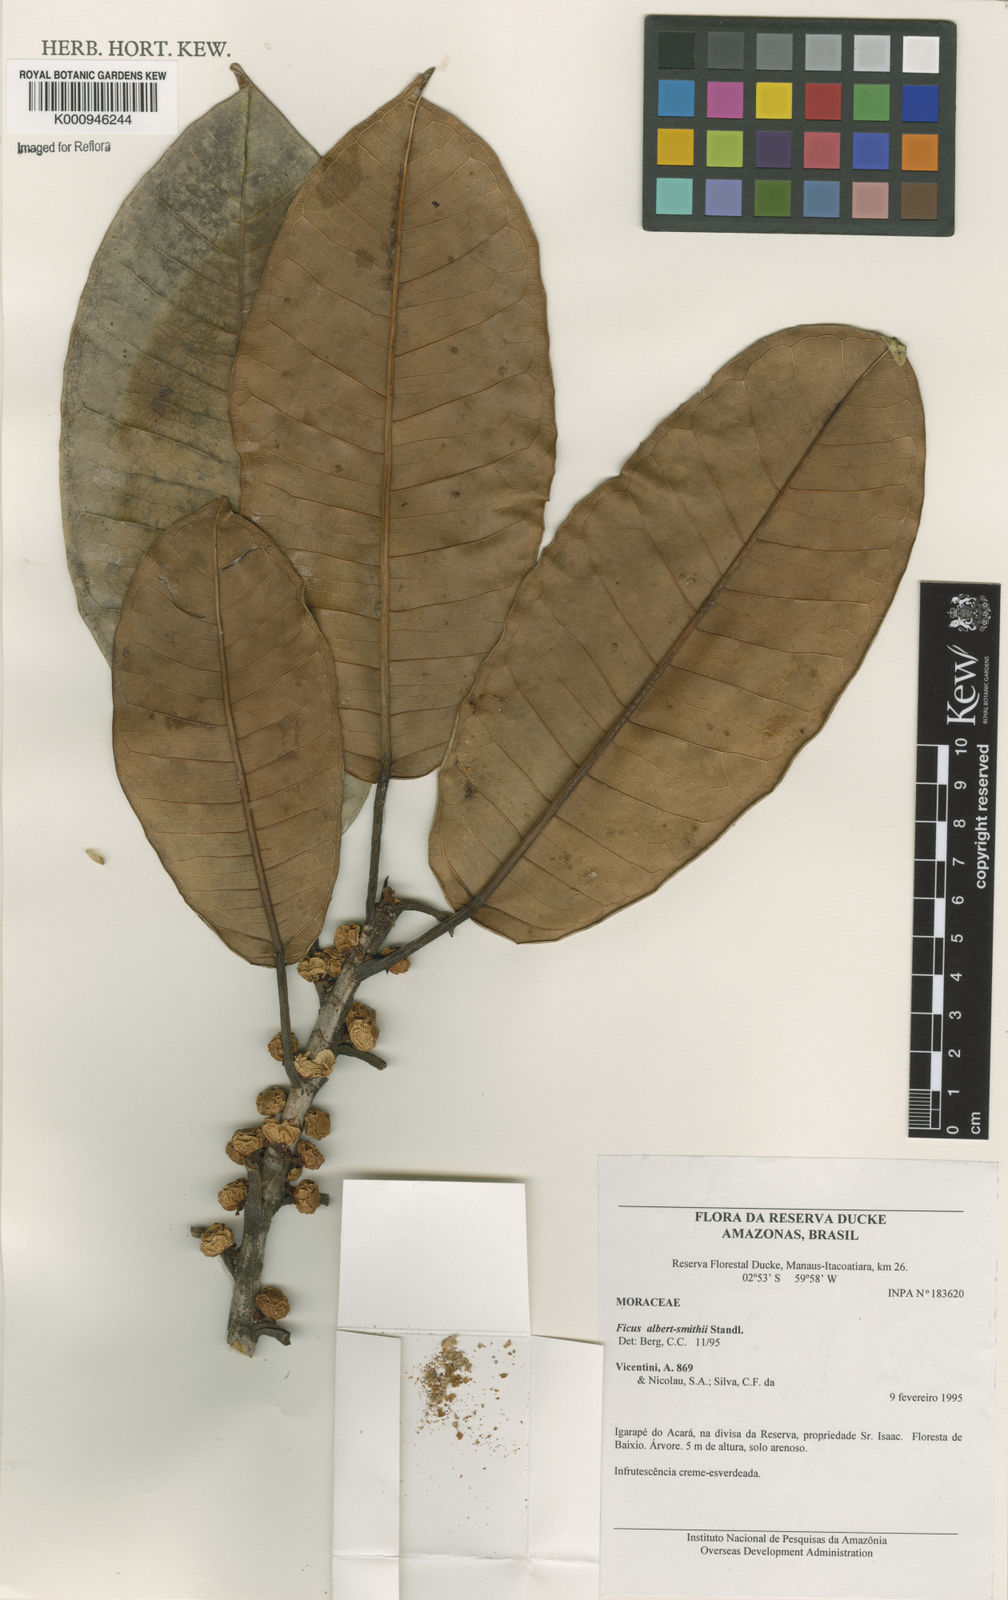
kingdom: Plantae
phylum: Tracheophyta
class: Magnoliopsida
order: Rosales
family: Moraceae
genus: Ficus
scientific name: Ficus albert-smithii
